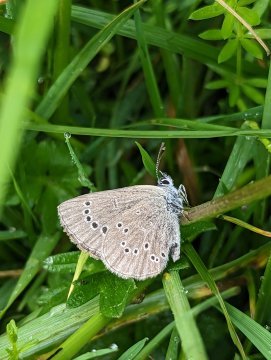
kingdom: Animalia
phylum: Arthropoda
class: Insecta
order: Lepidoptera
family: Lycaenidae
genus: Glaucopsyche
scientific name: Glaucopsyche lygdamus
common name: Silvery Blue
